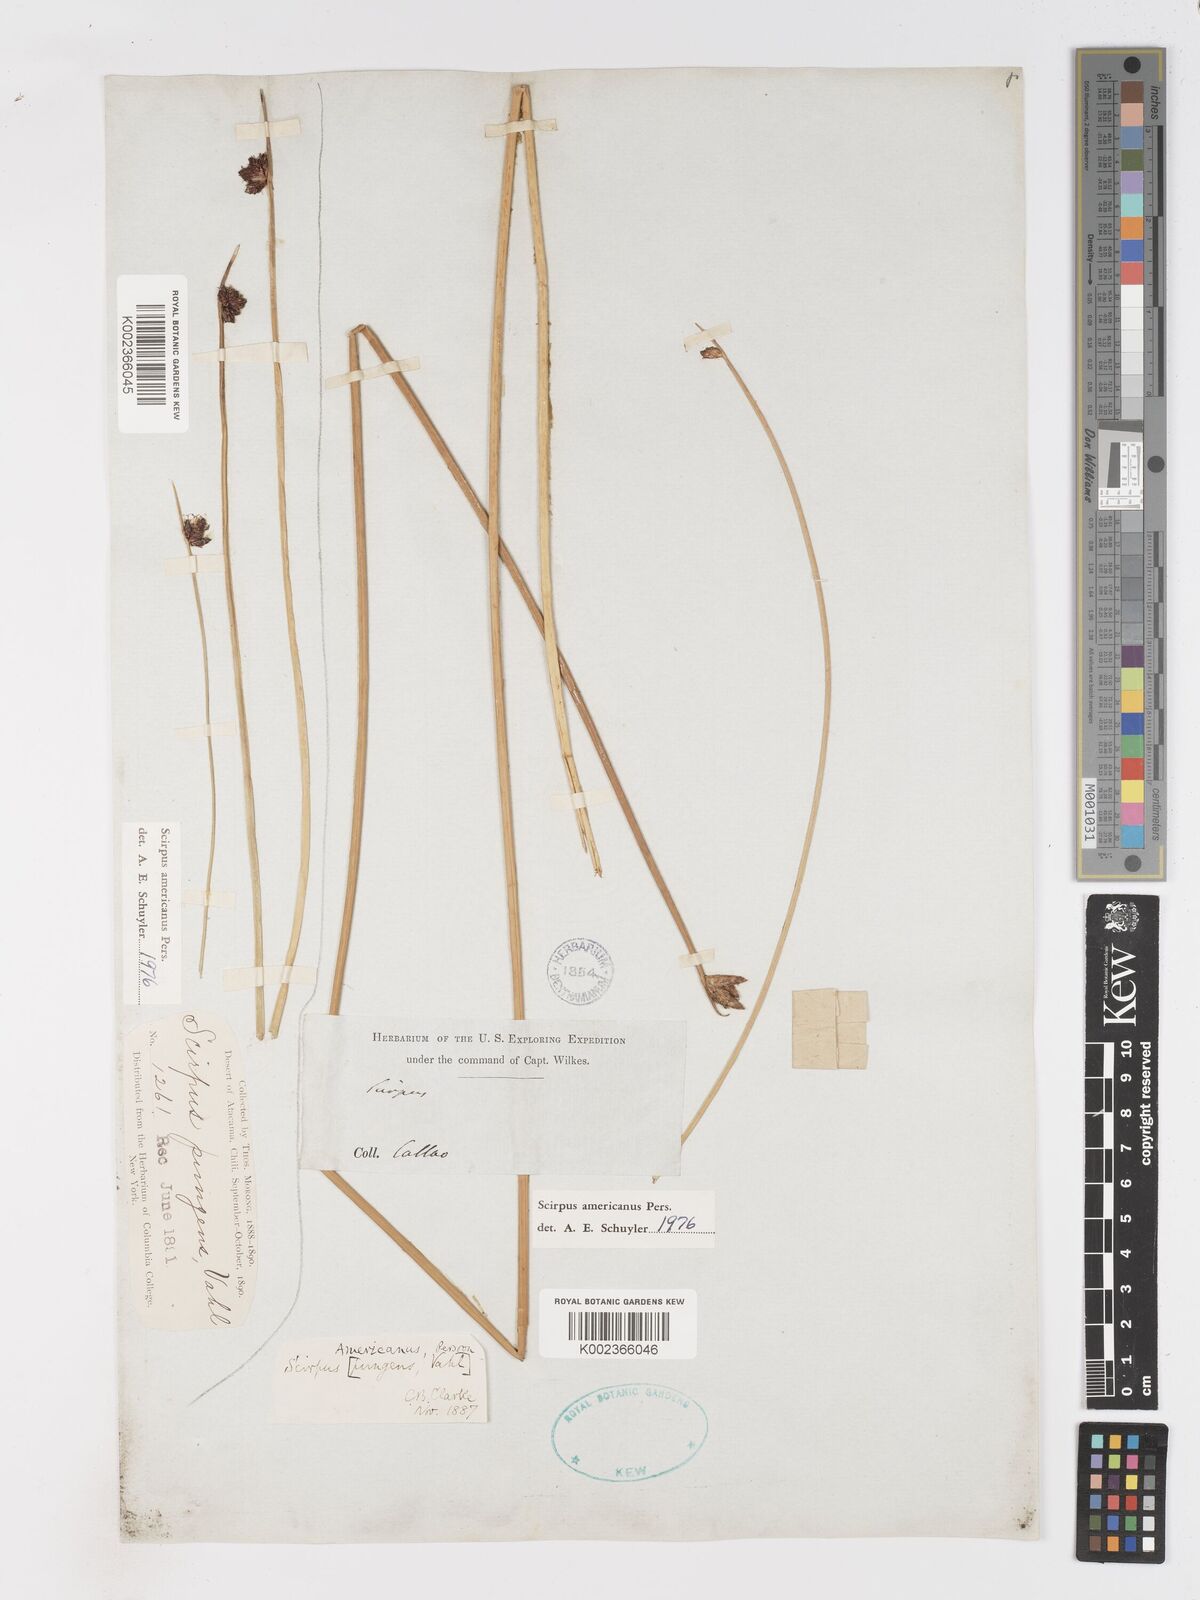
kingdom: Plantae
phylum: Tracheophyta
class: Liliopsida
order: Poales
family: Cyperaceae
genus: Schoenoplectus
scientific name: Schoenoplectus americanus
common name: American three-square bulrush
